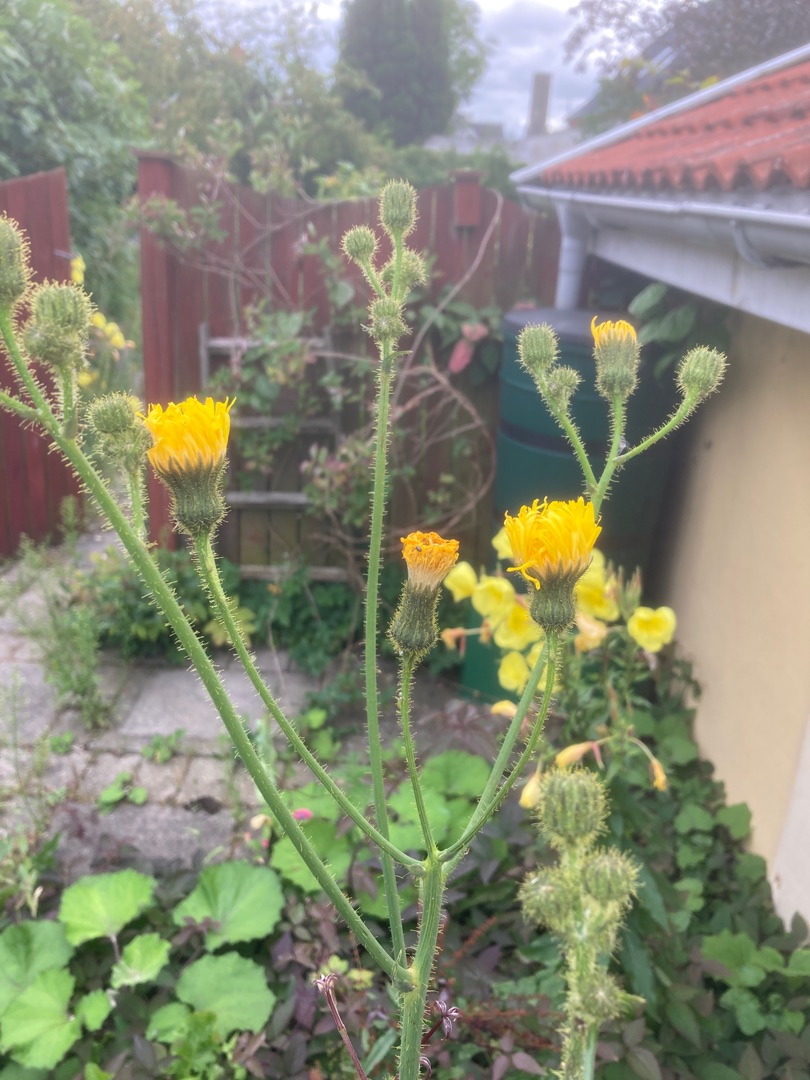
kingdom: Plantae
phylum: Tracheophyta
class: Magnoliopsida
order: Asterales
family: Asteraceae
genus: Sonchus
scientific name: Sonchus arvensis
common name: Ager-svinemælk
